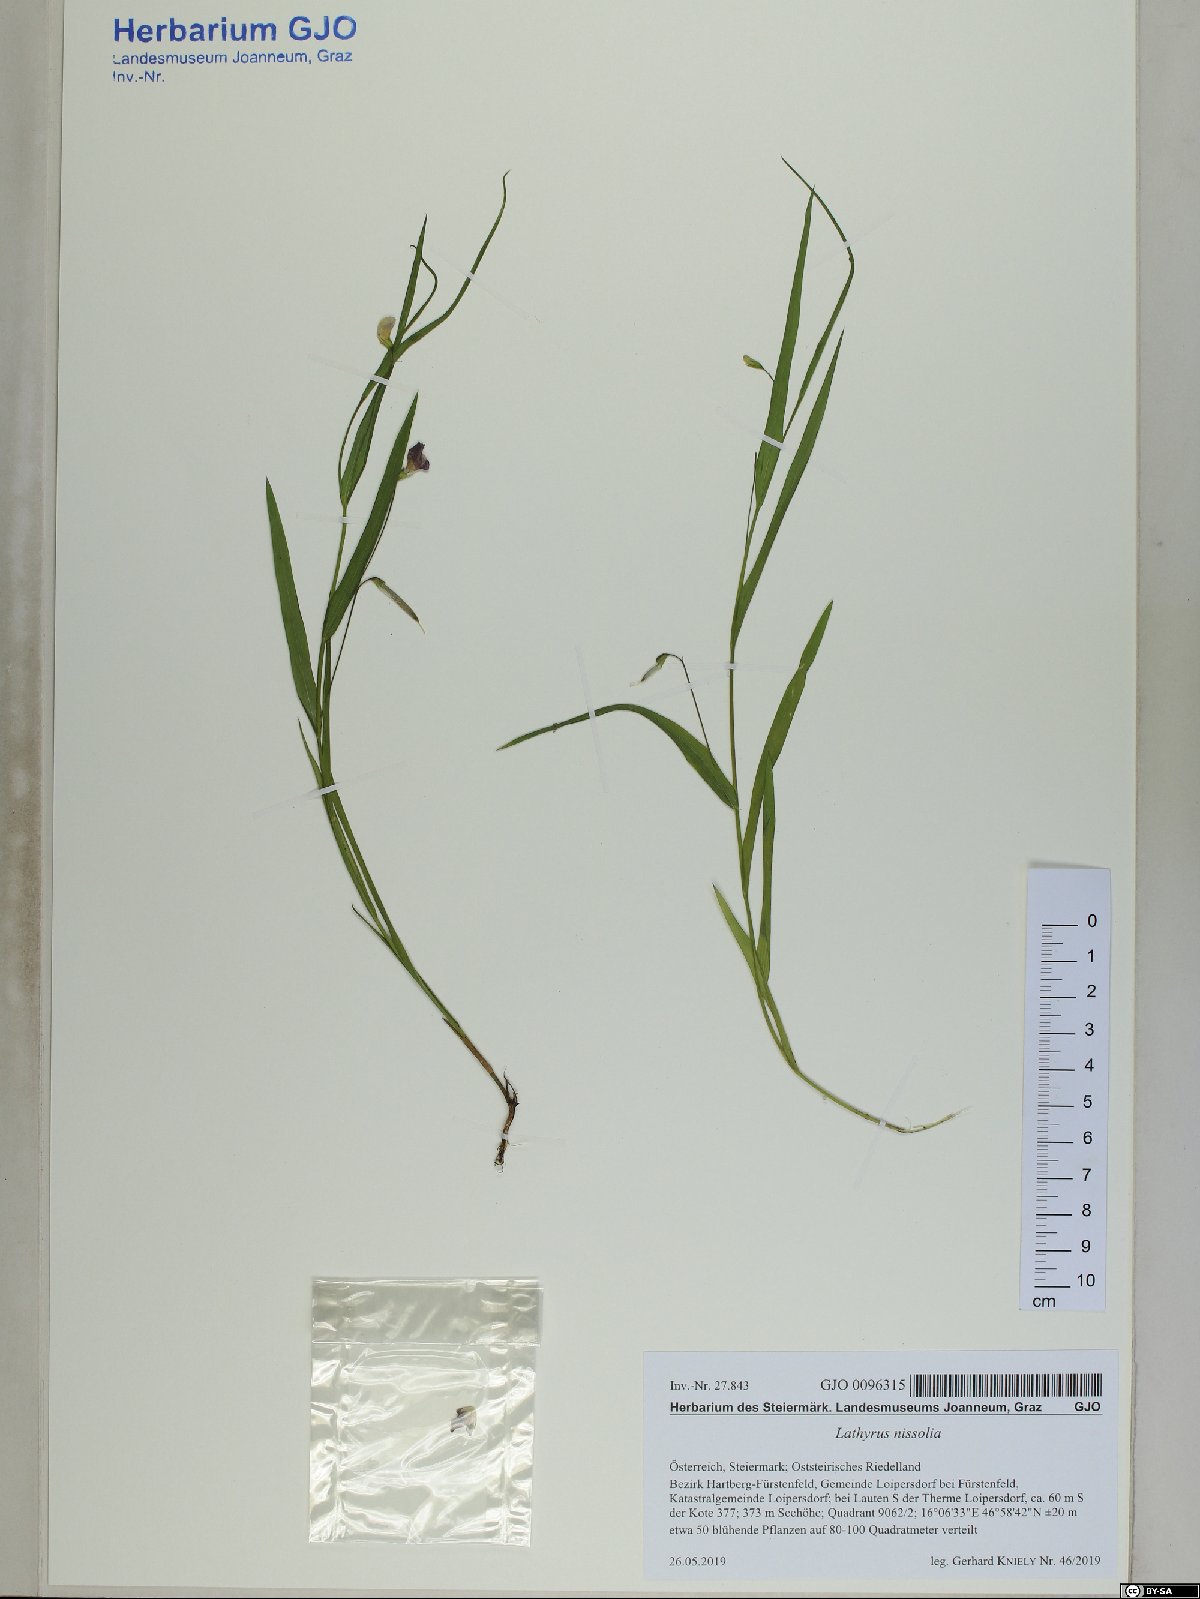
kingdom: Plantae
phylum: Tracheophyta
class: Magnoliopsida
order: Fabales
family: Fabaceae
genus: Lathyrus
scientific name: Lathyrus nissolia
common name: Grass vetchling
